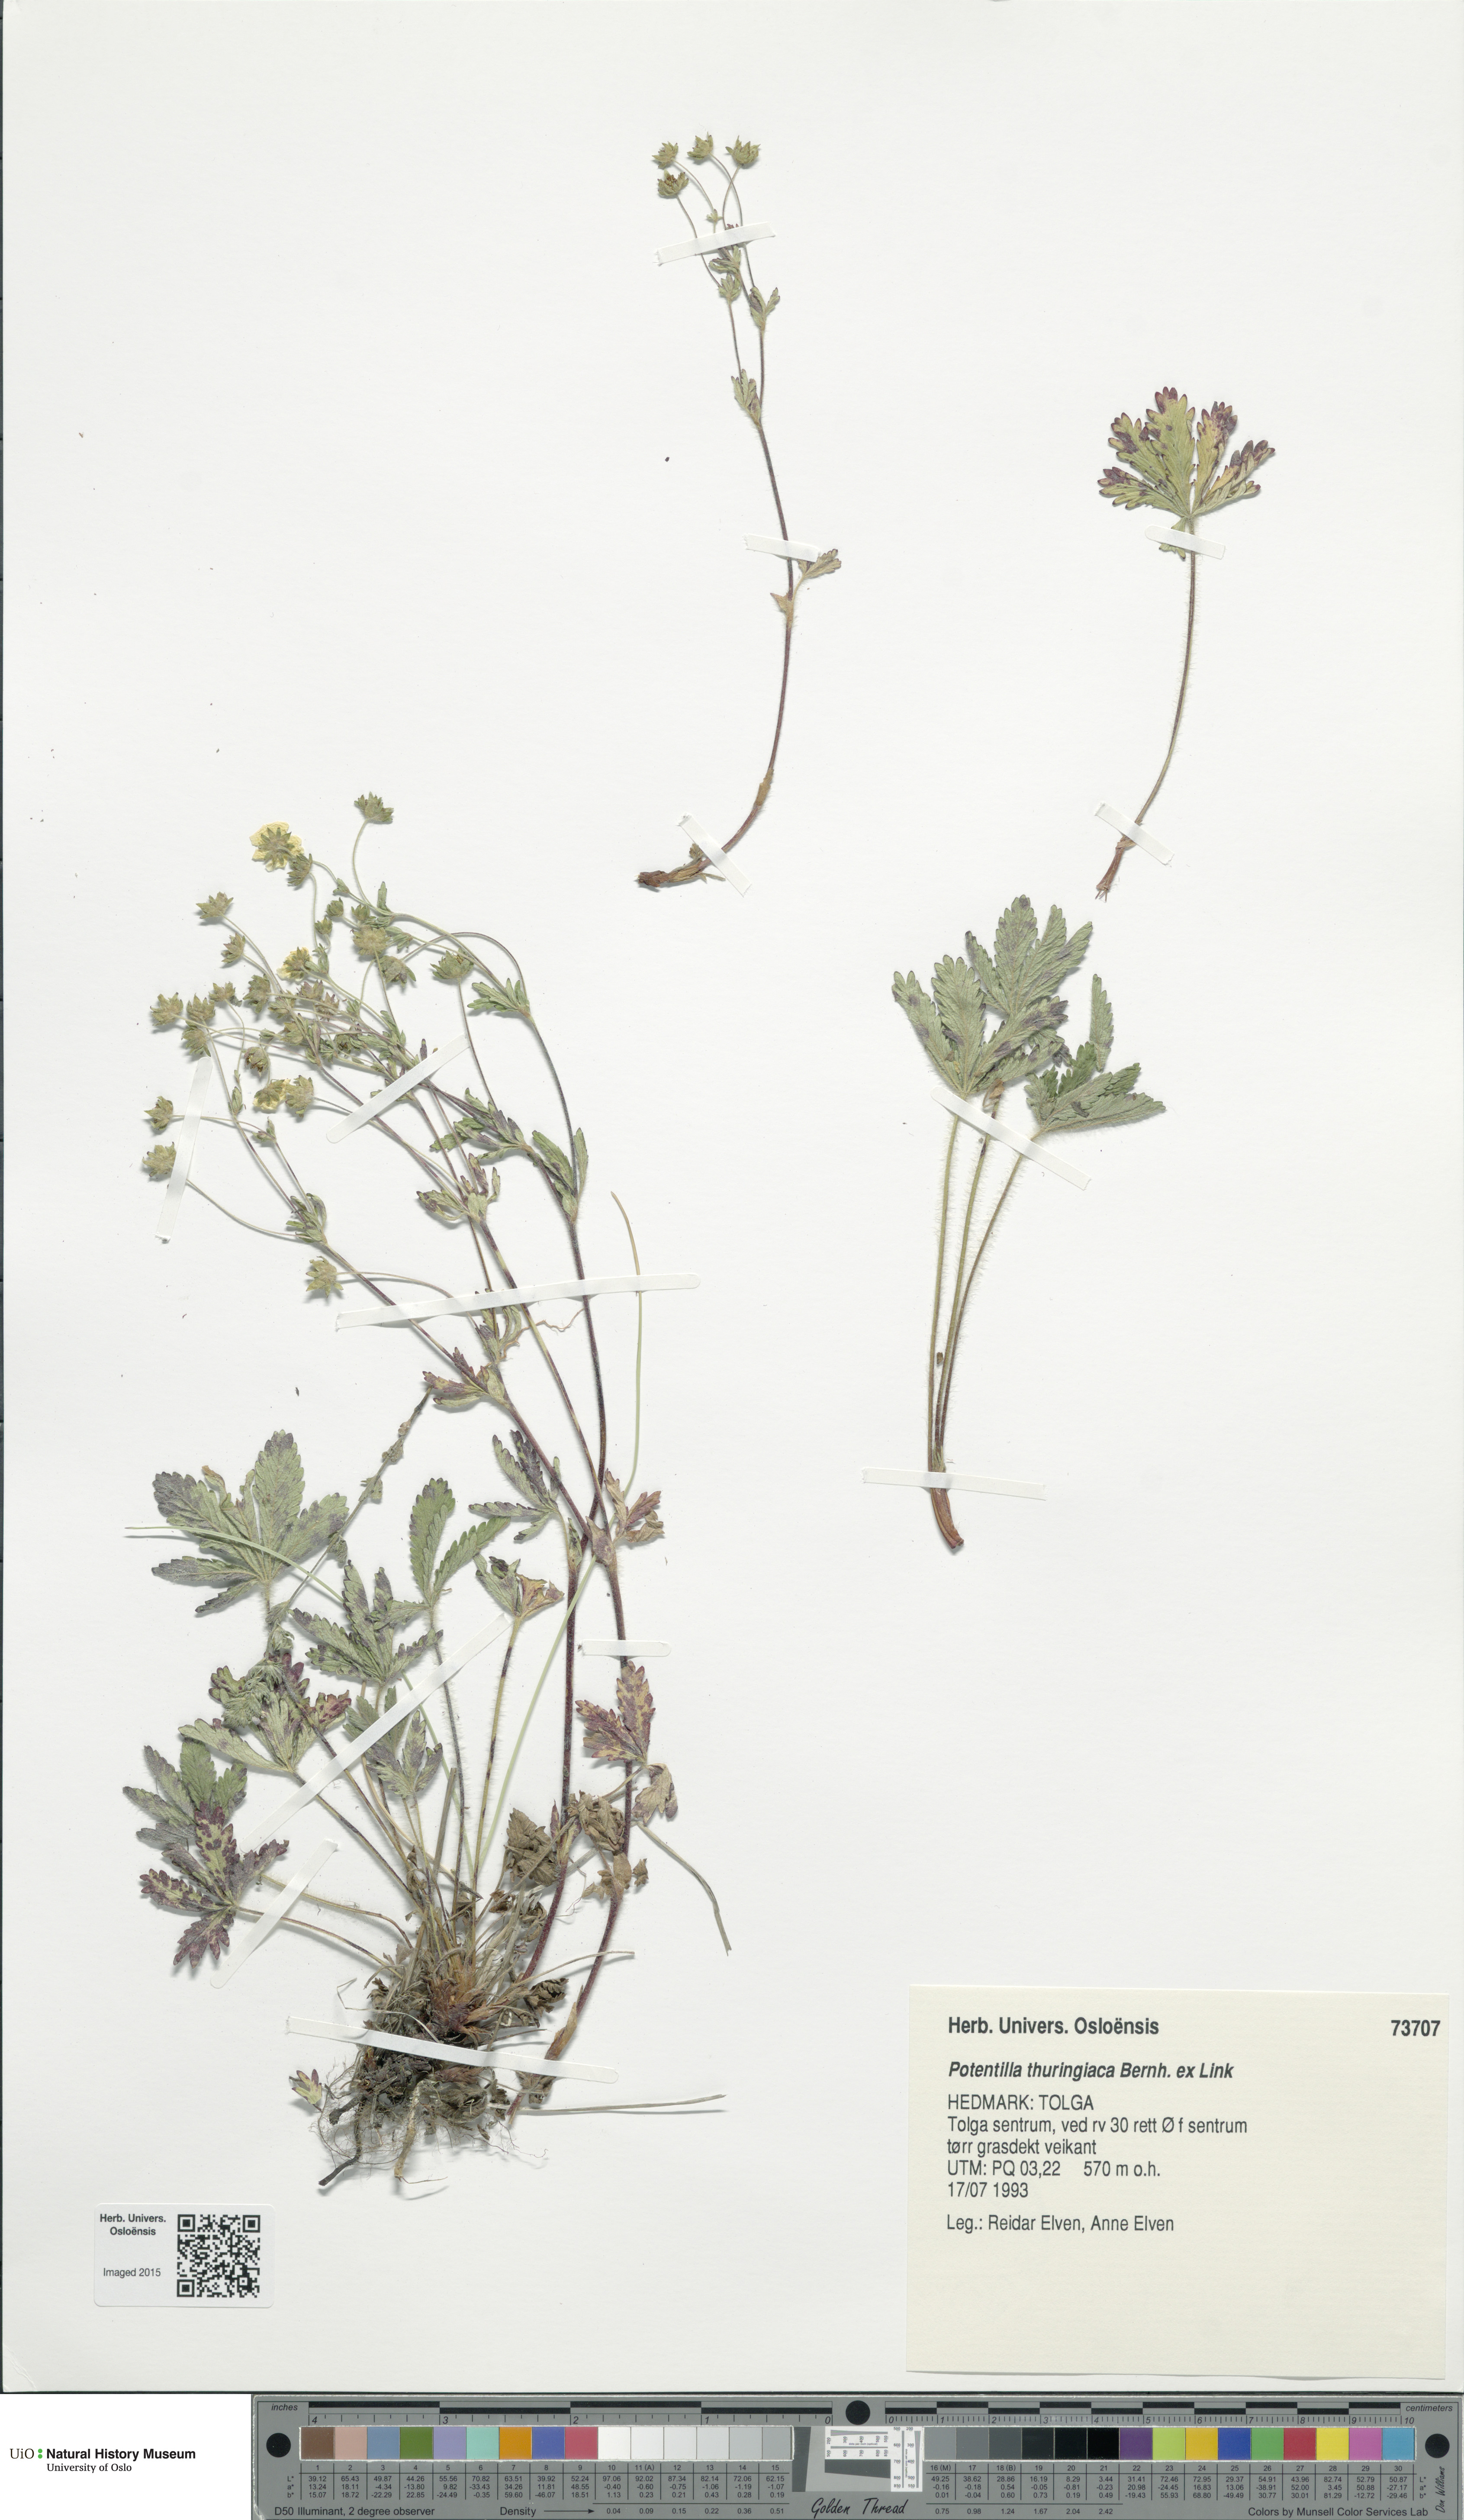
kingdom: Plantae
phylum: Tracheophyta
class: Magnoliopsida
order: Rosales
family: Rosaceae
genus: Potentilla
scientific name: Potentilla thuringiaca
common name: European cinquefoil
